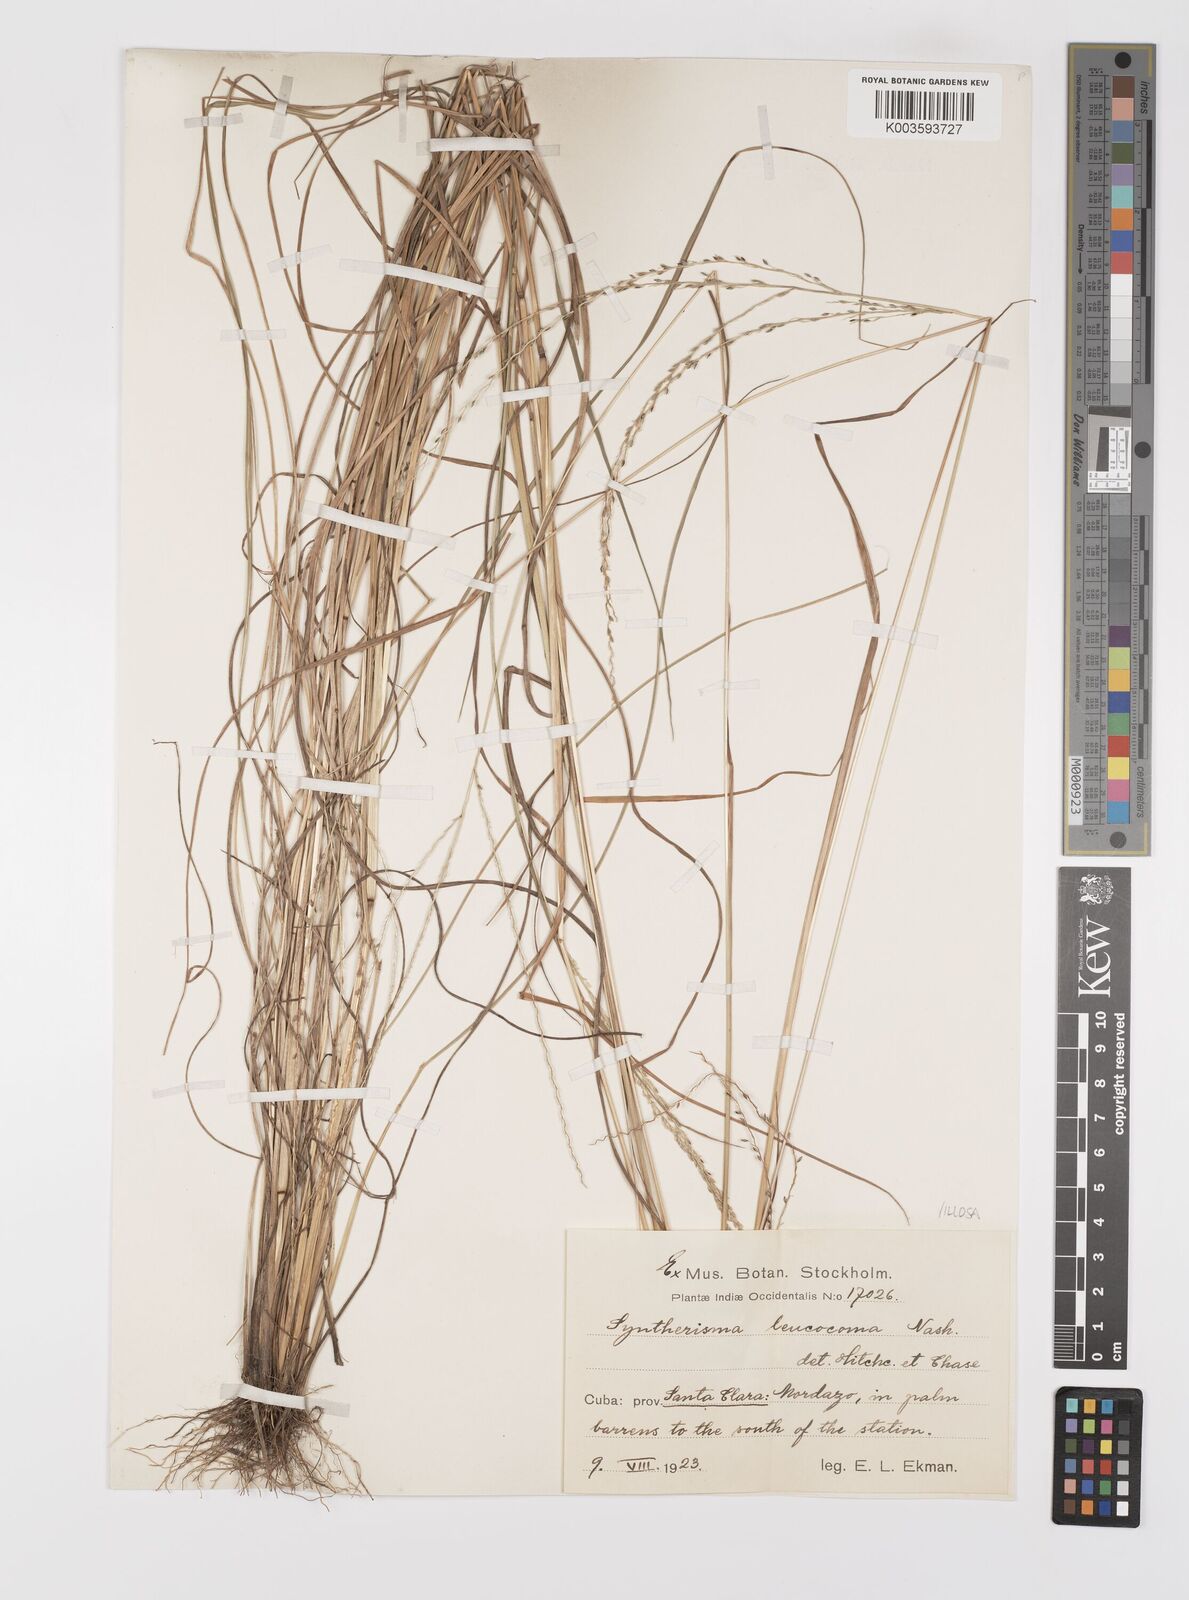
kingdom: Plantae
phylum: Tracheophyta
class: Liliopsida
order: Poales
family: Poaceae
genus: Digitaria
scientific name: Digitaria villosa
